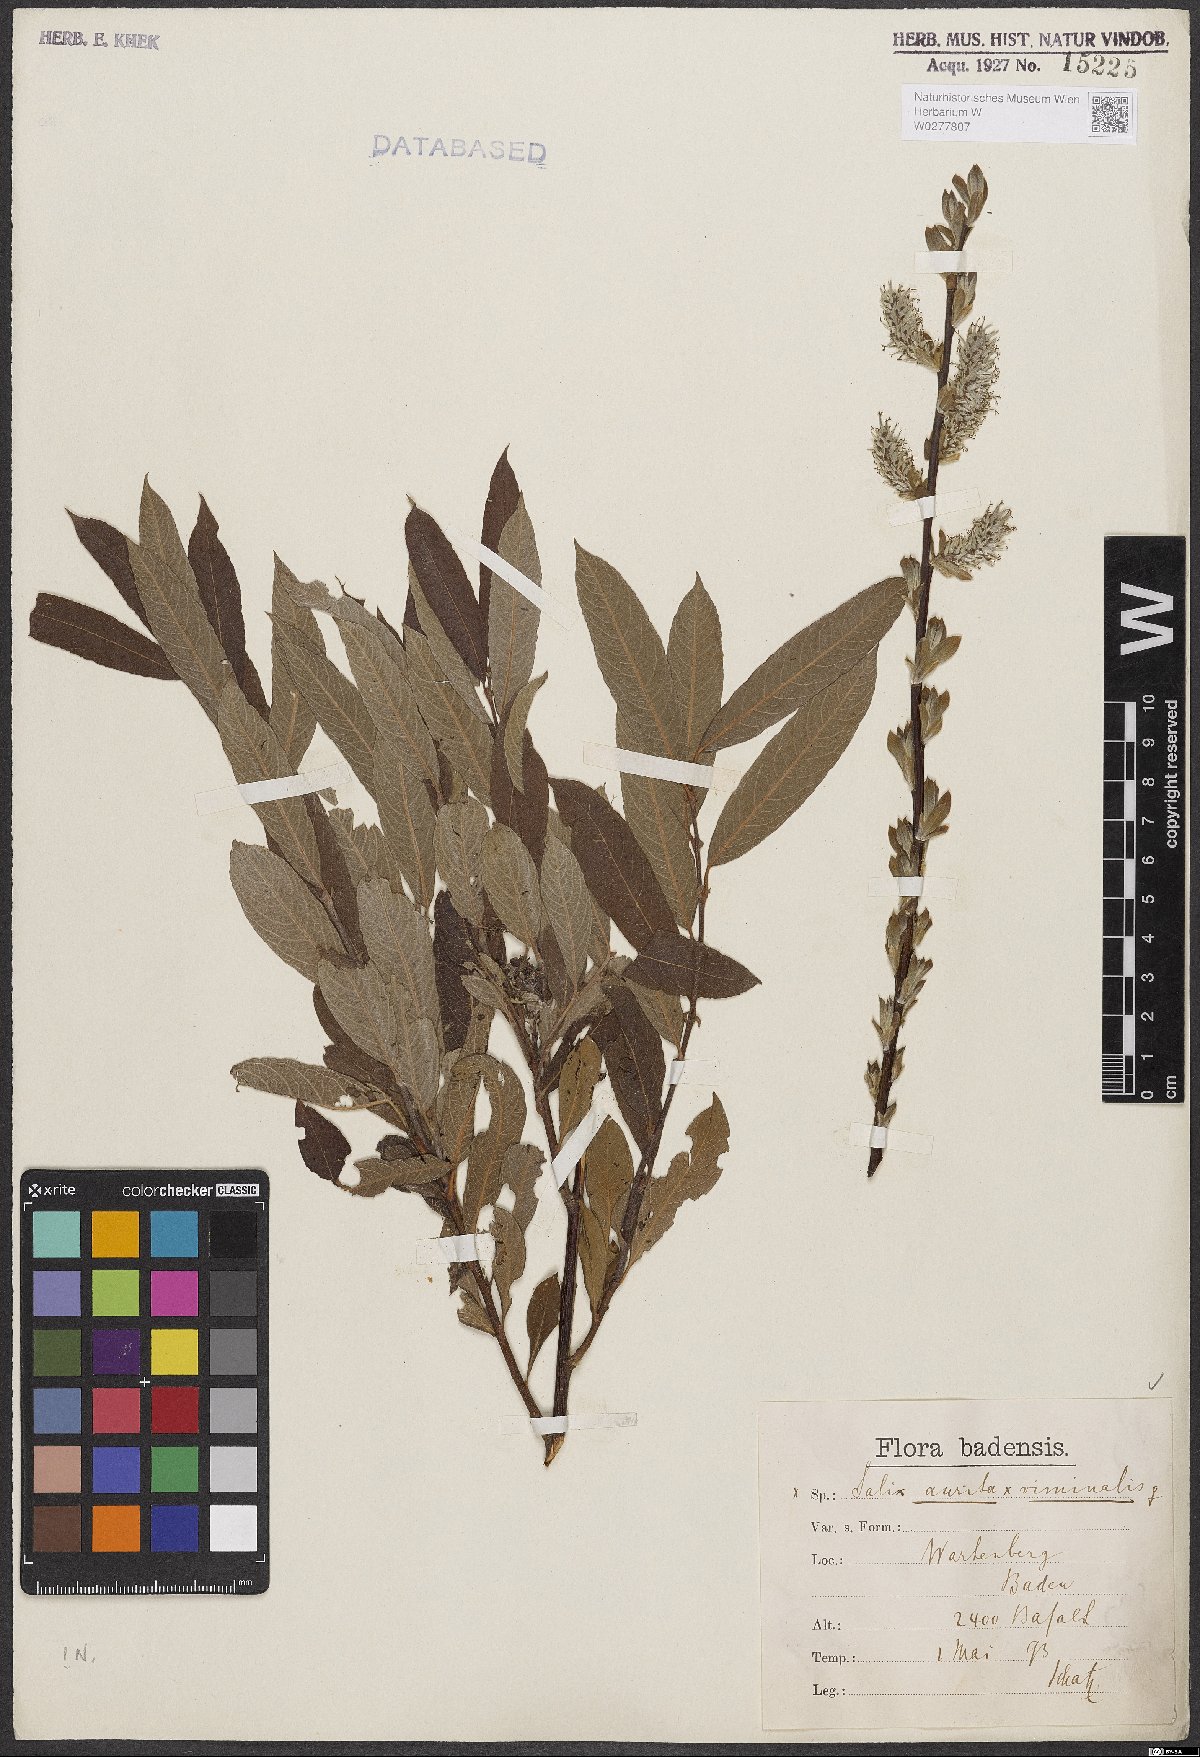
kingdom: Plantae
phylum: Tracheophyta
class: Magnoliopsida
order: Malpighiales
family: Salicaceae
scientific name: Salicaceae
